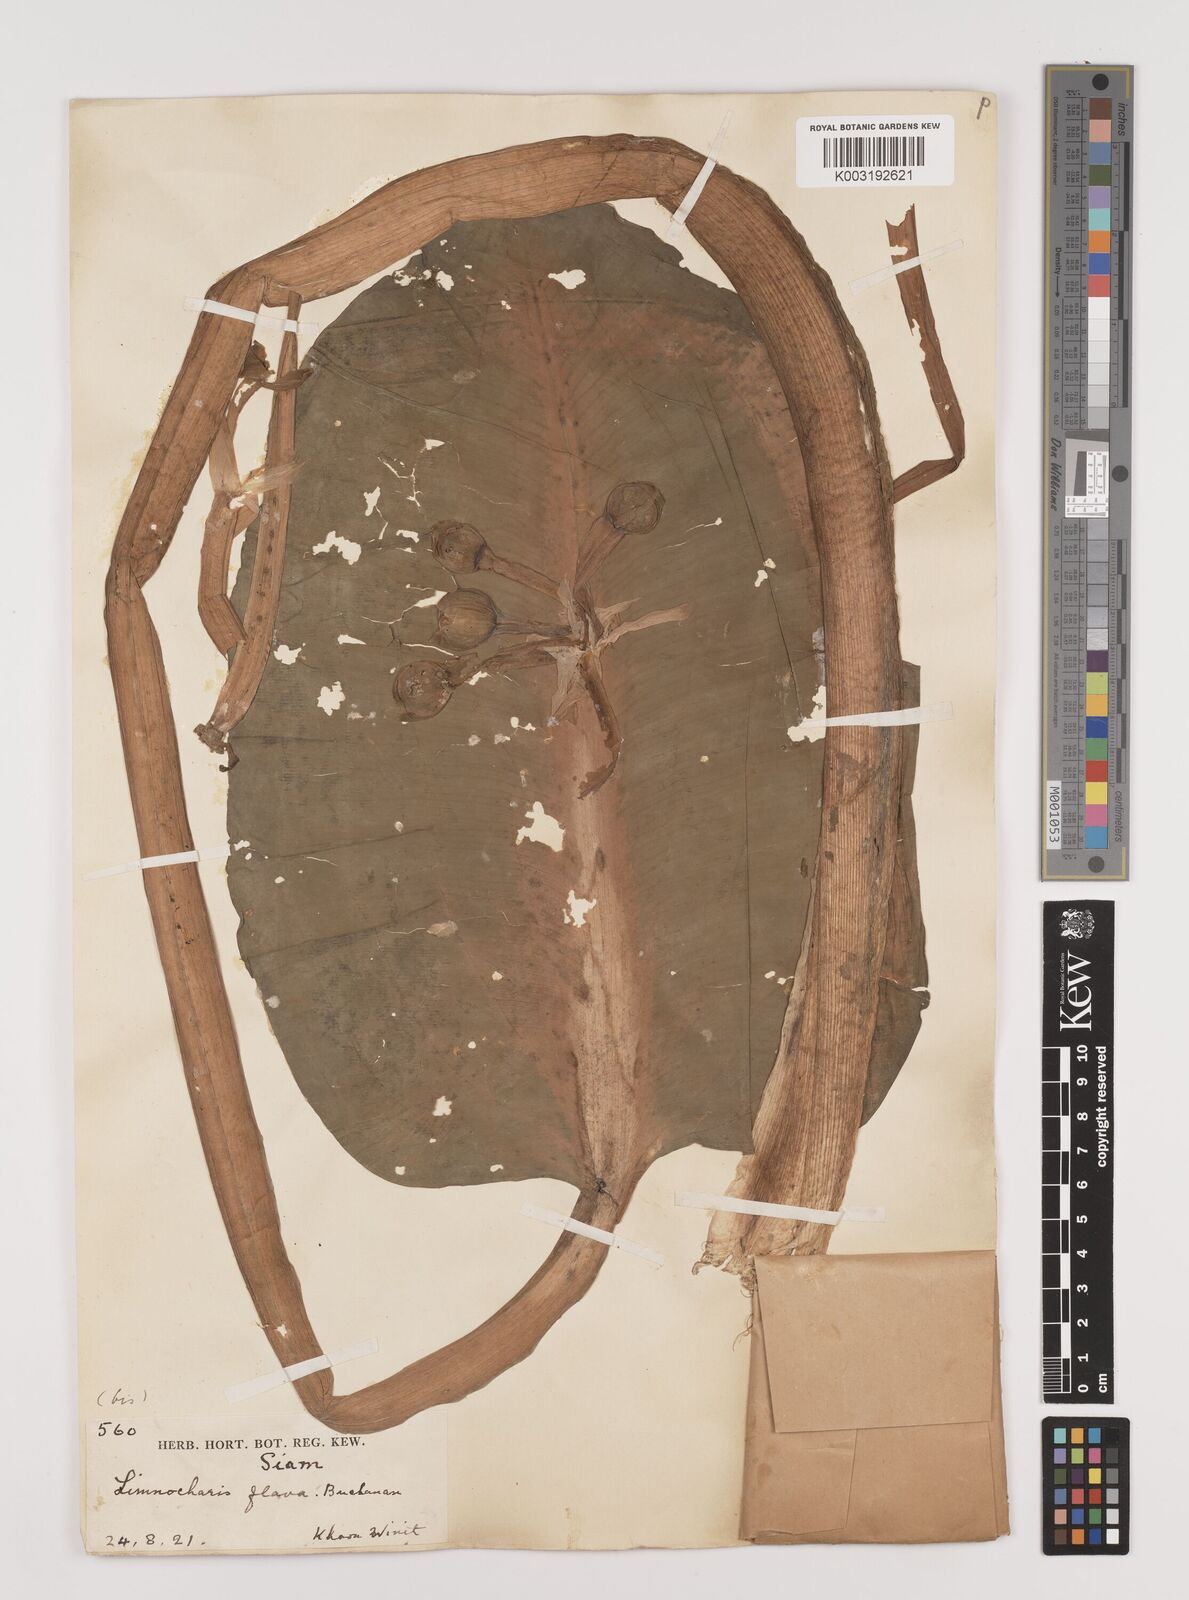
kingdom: Plantae
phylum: Tracheophyta
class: Liliopsida
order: Alismatales
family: Alismataceae
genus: Limnocharis
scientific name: Limnocharis flava
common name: Sawah-flower-rush
